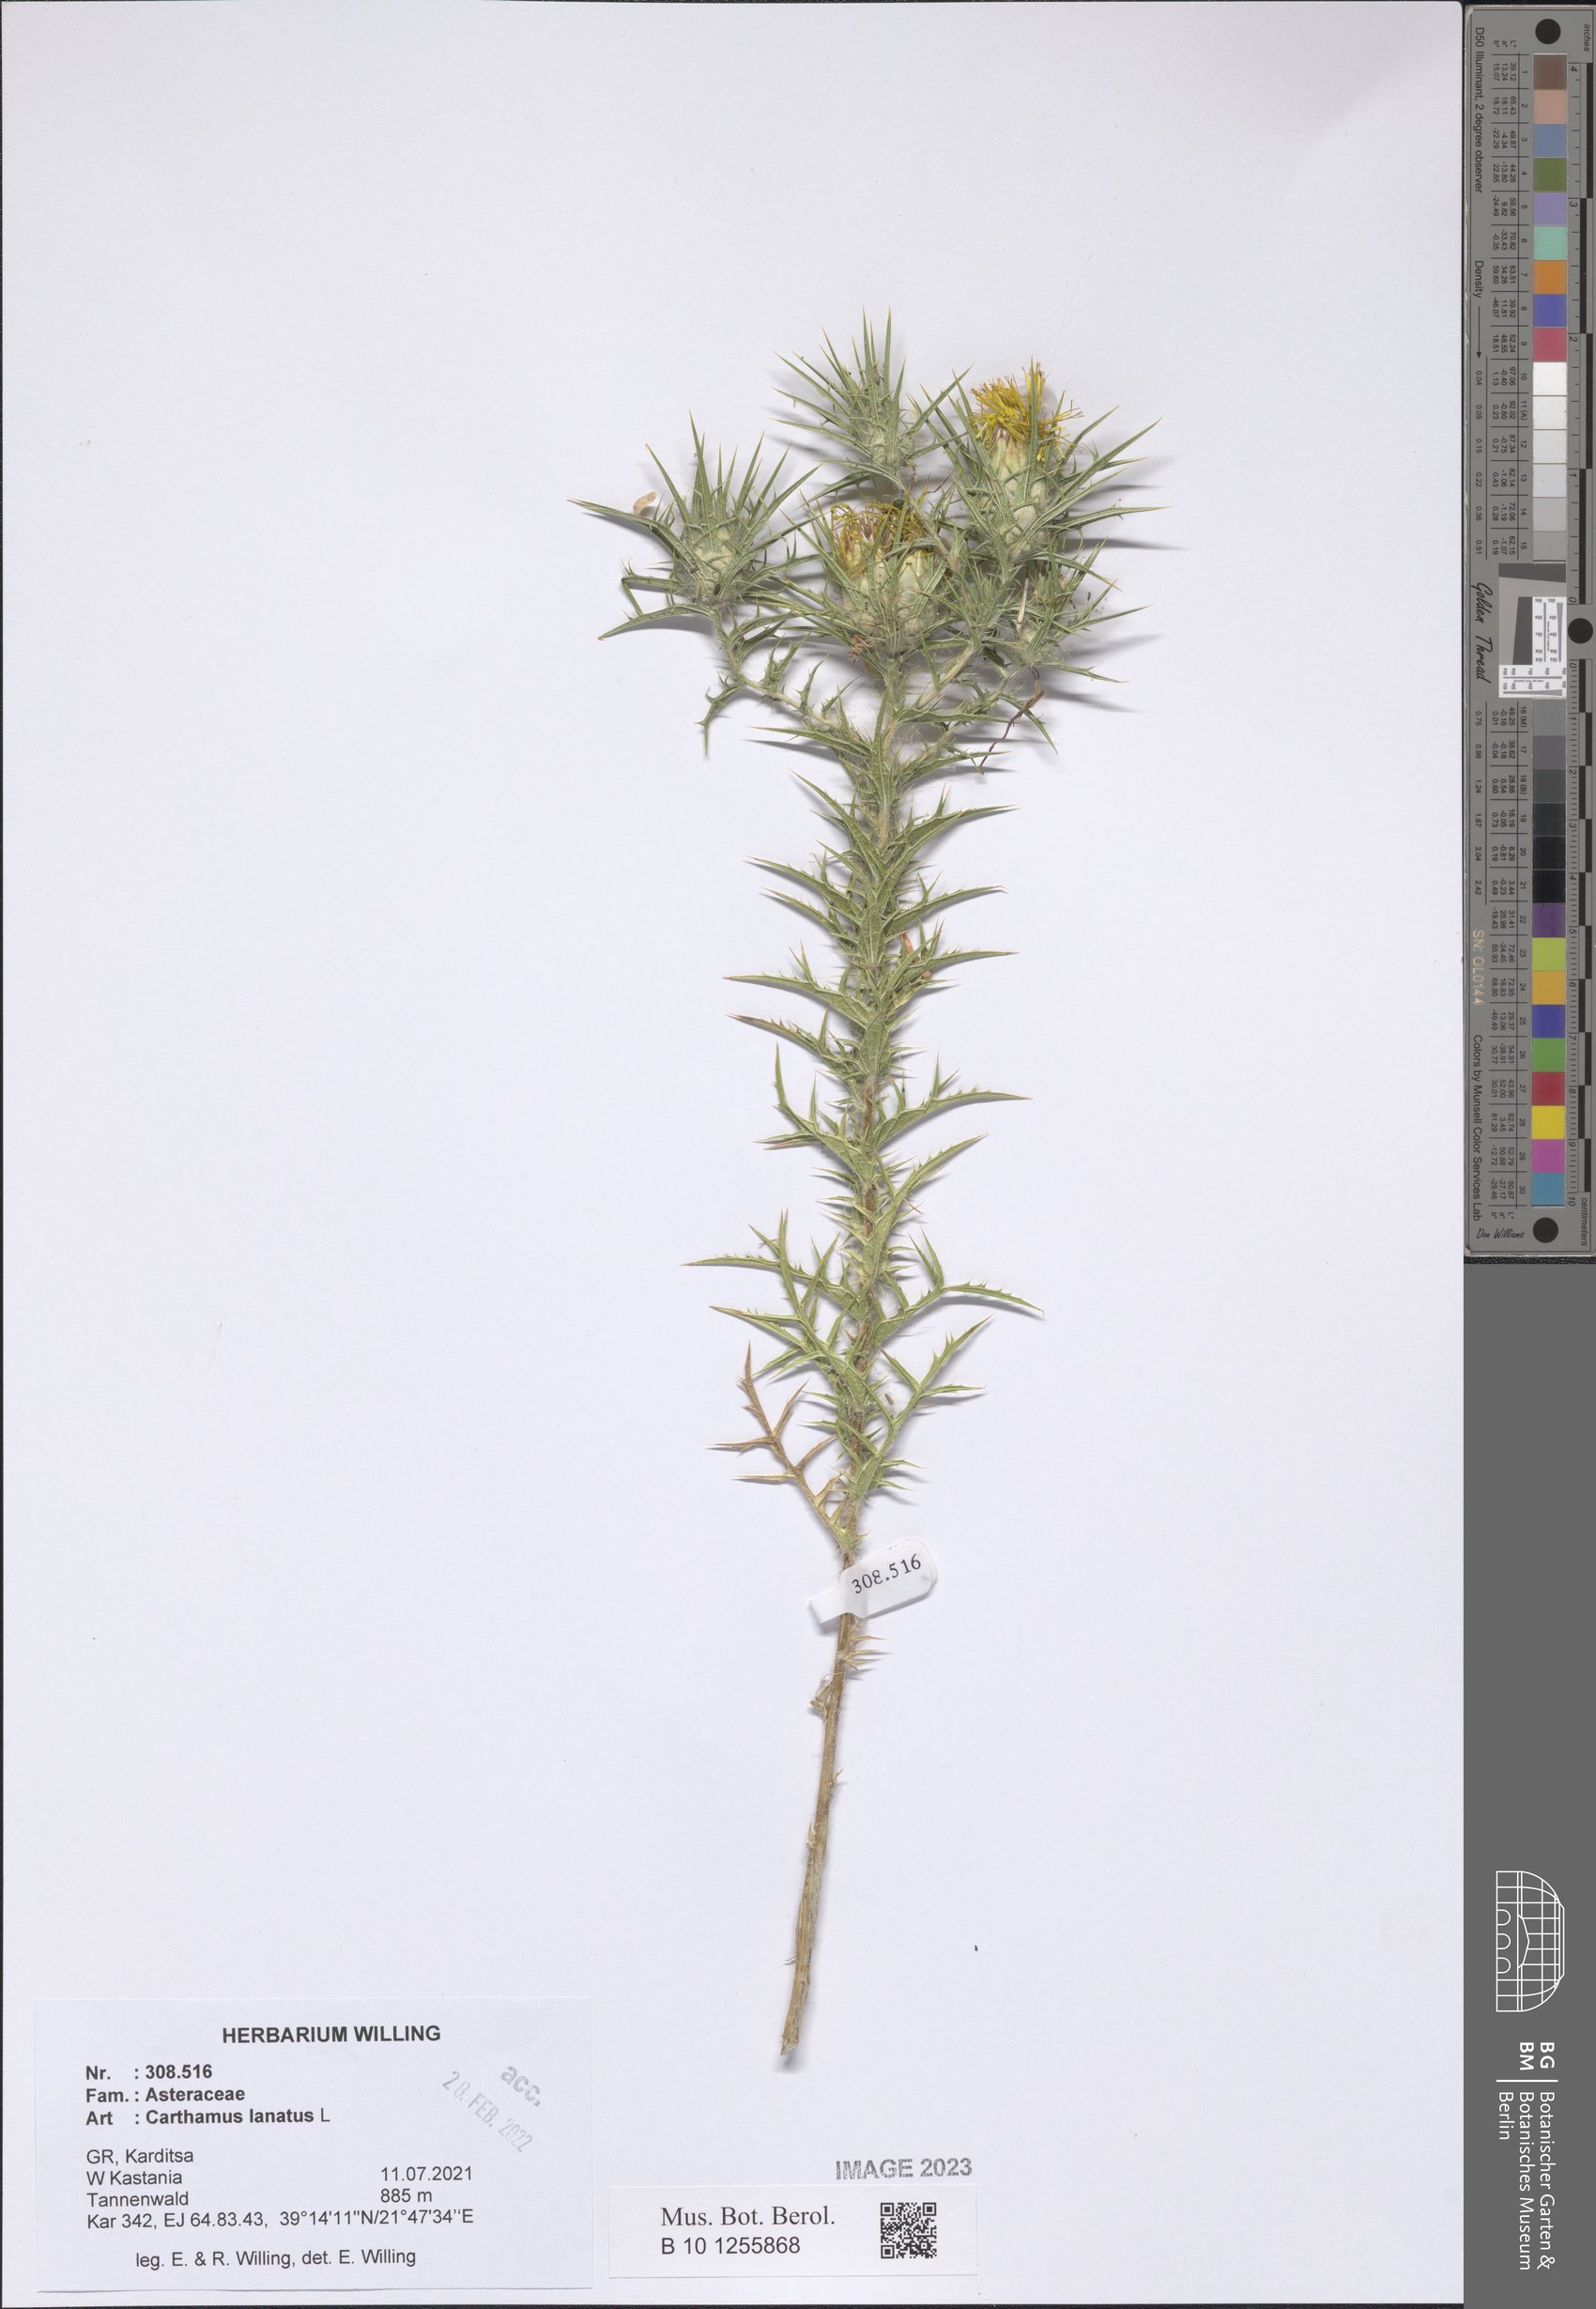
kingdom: Plantae
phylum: Tracheophyta
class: Magnoliopsida
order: Asterales
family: Asteraceae
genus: Carthamus
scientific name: Carthamus lanatus
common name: Downy safflower
